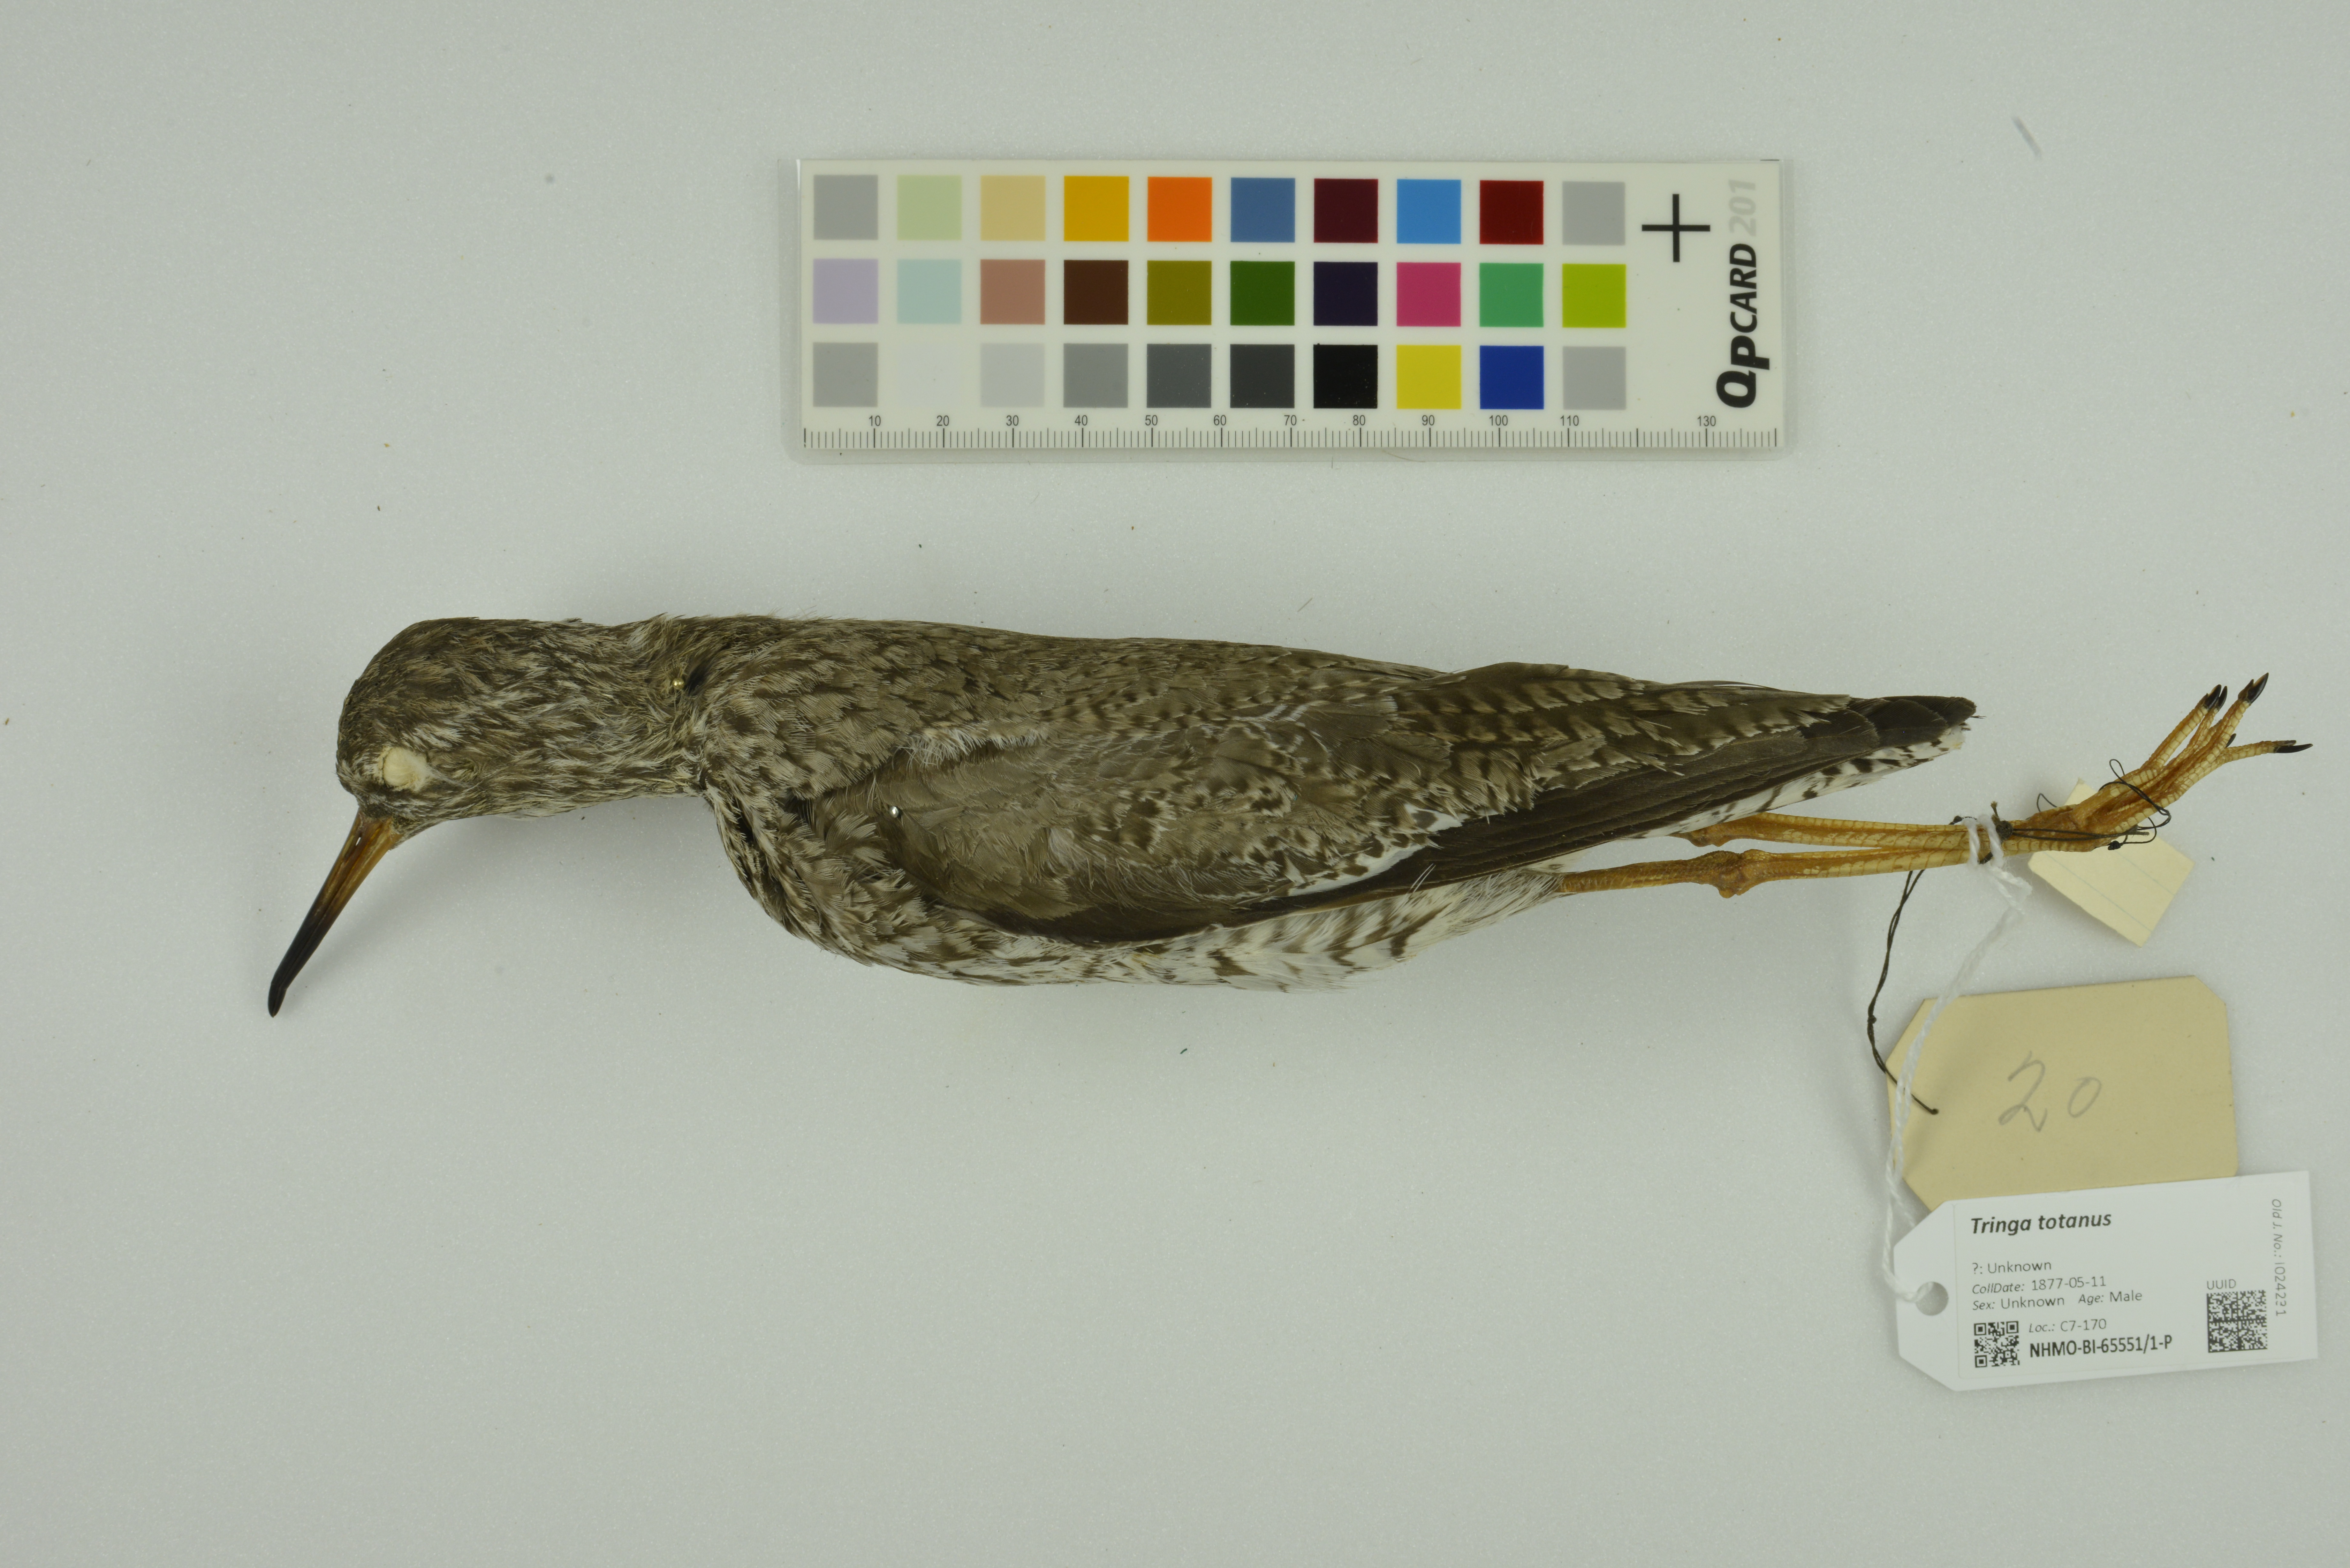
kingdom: Animalia
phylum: Chordata
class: Aves
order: Charadriiformes
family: Scolopacidae
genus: Tringa
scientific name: Tringa totanus
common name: Common redshank
